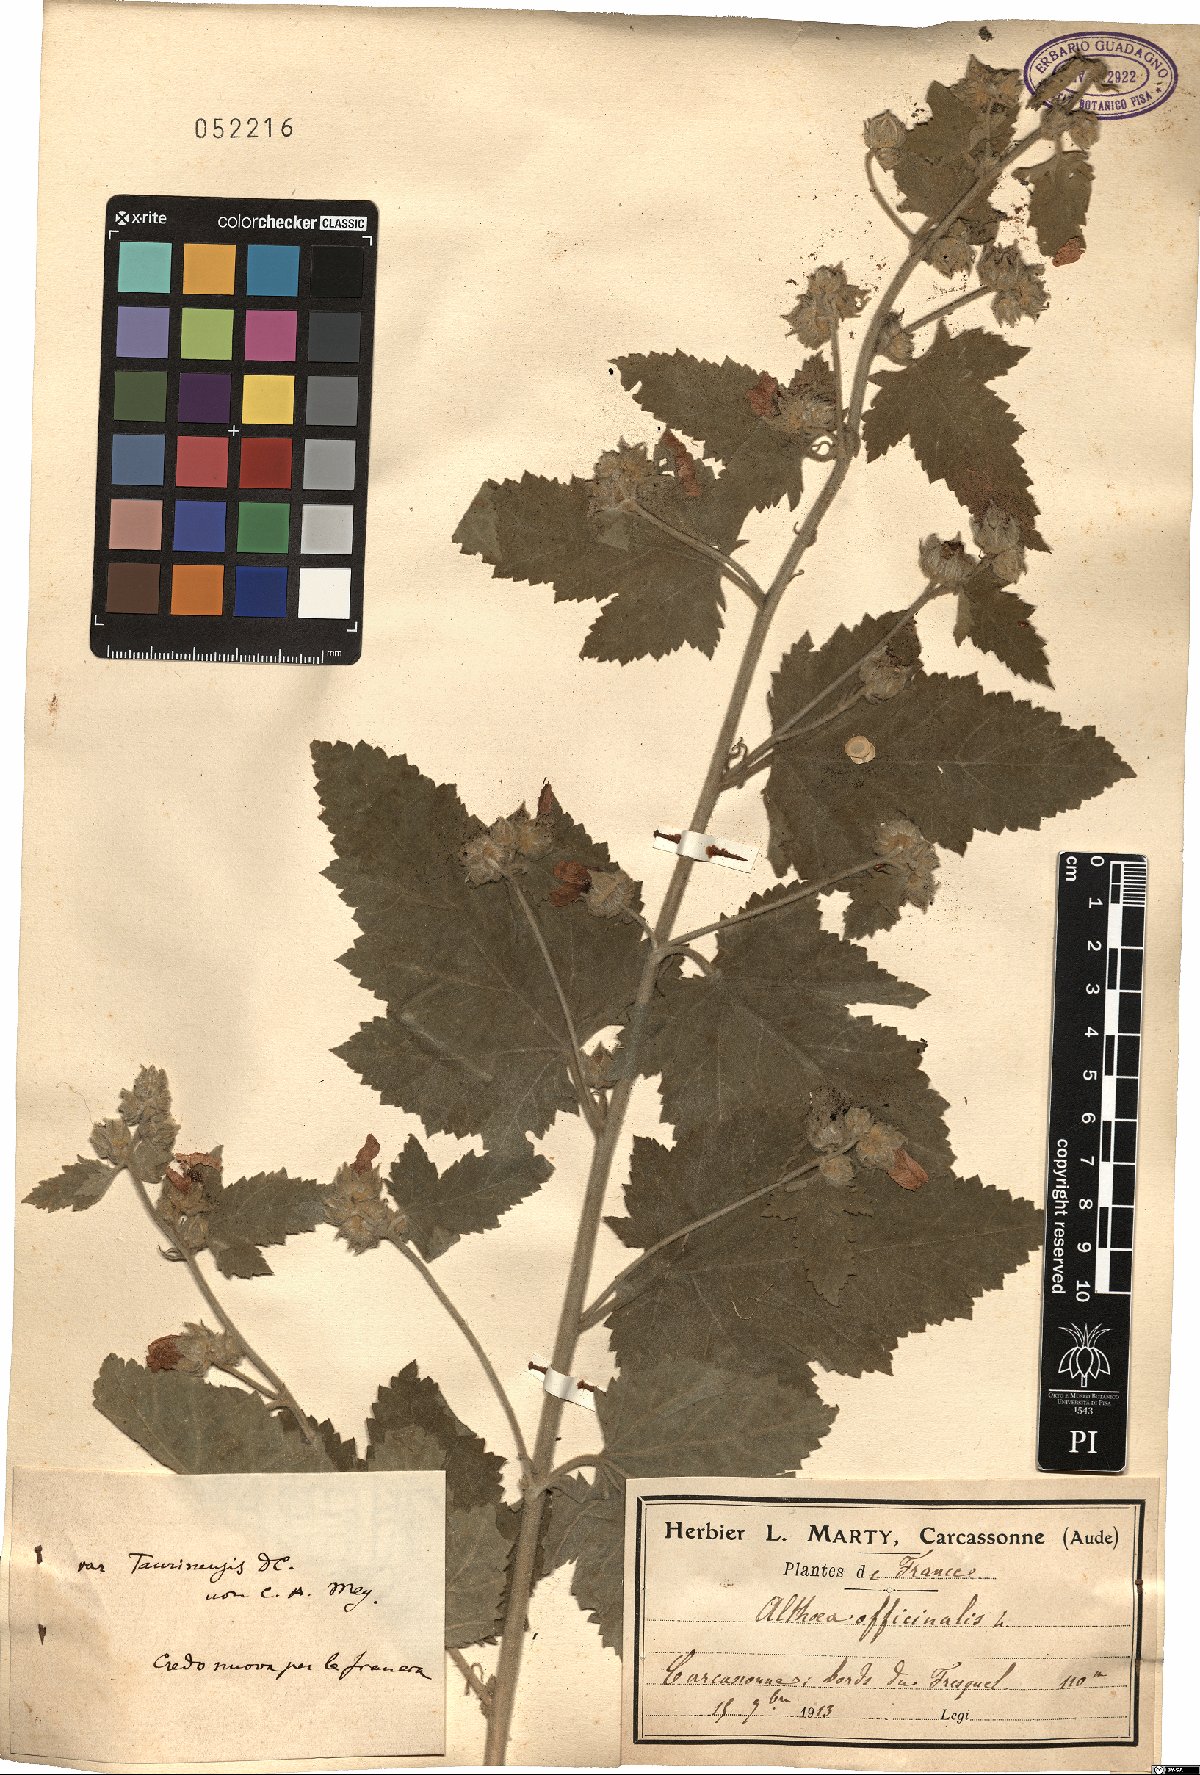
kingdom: Plantae
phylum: Tracheophyta
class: Magnoliopsida
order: Malvales
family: Malvaceae
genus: Althaea
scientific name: Althaea taurinensis
